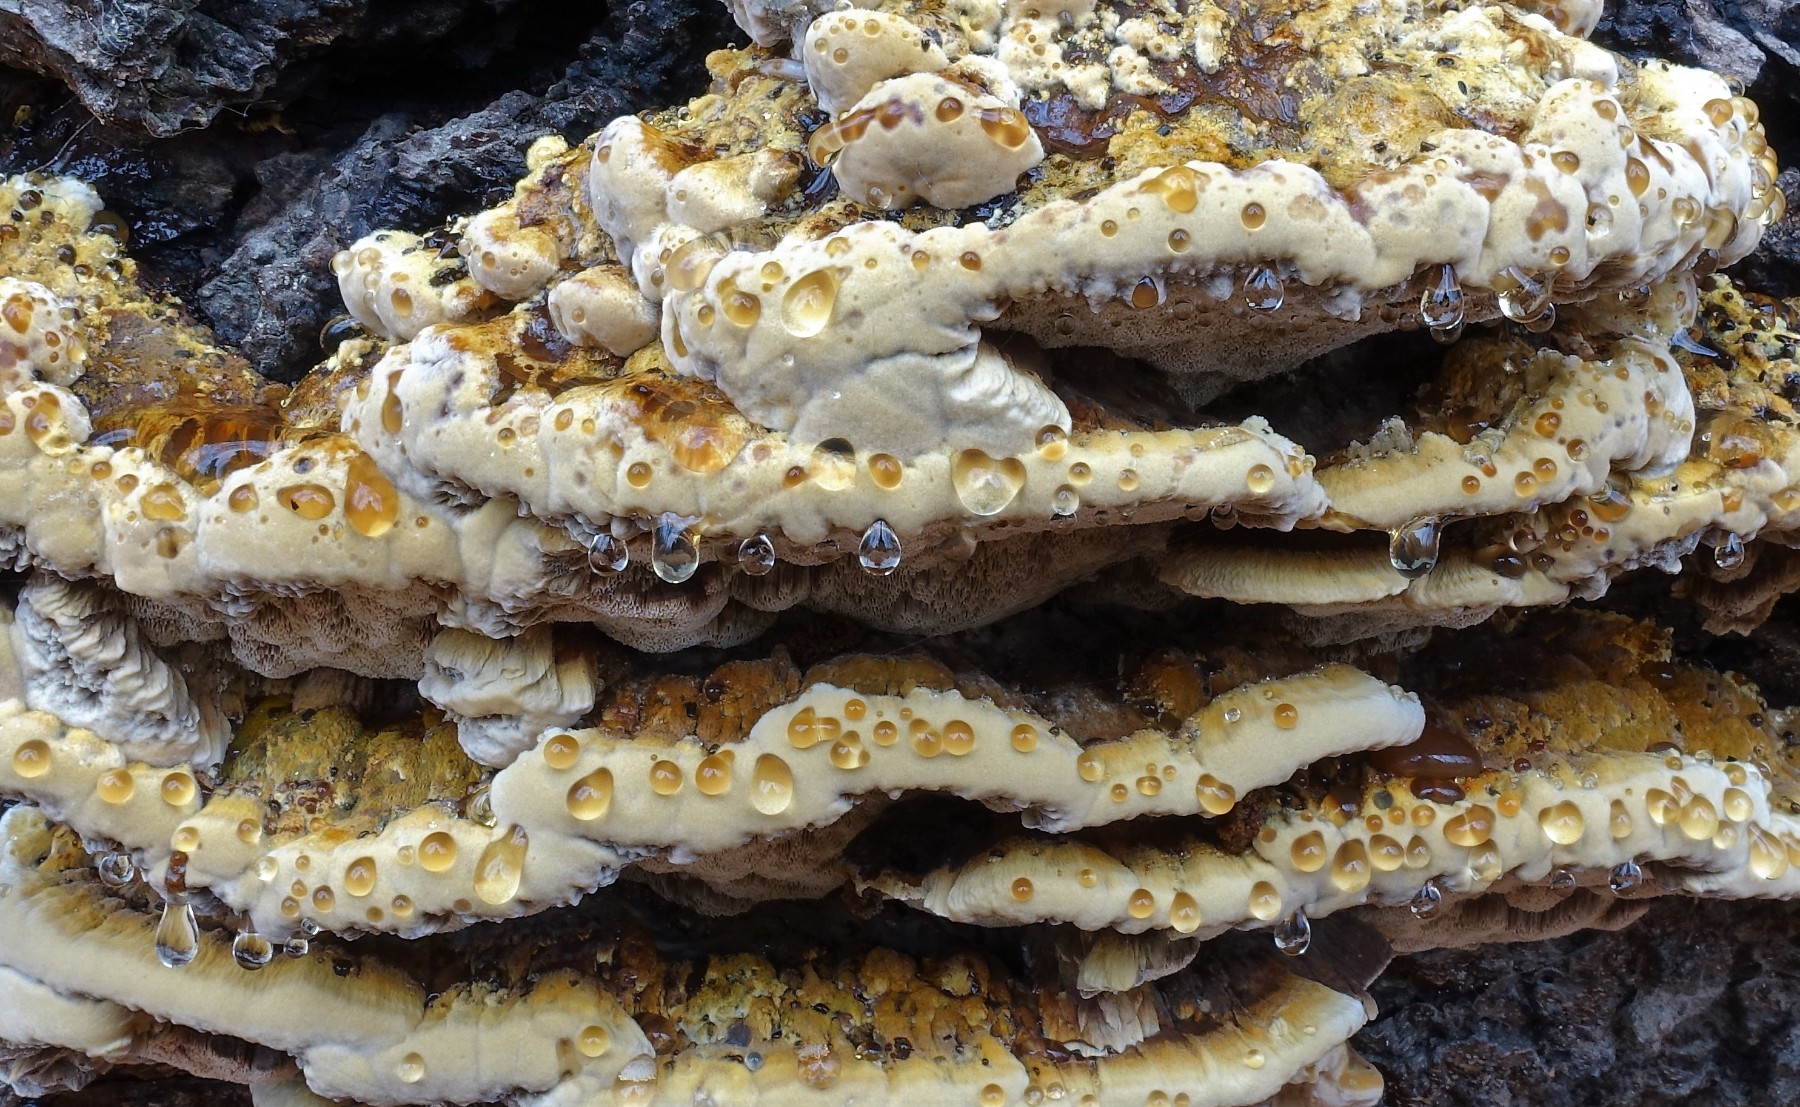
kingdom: Fungi
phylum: Basidiomycota
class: Agaricomycetes
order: Hymenochaetales
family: Hymenochaetaceae
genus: Xanthoporia
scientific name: Xanthoporia radiata
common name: elle-spejlporesvamp
